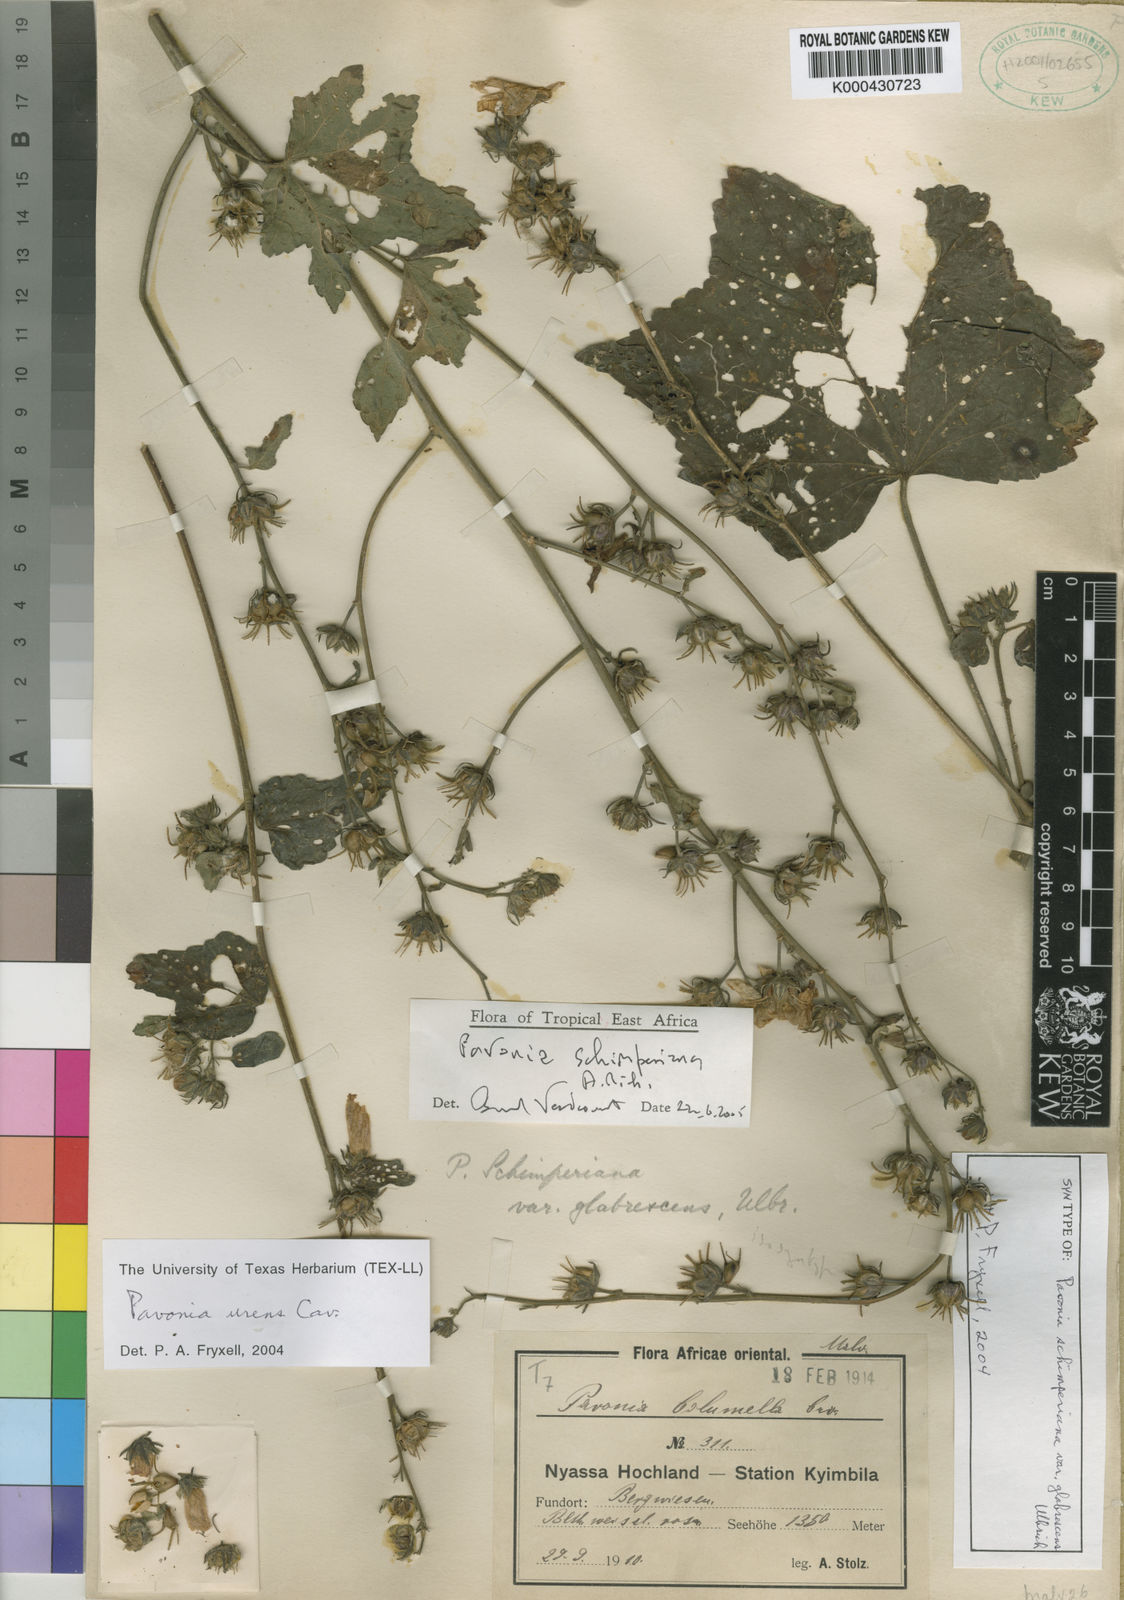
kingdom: Plantae
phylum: Tracheophyta
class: Magnoliopsida
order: Malvales
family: Malvaceae
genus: Pavonia
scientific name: Pavonia schimperiana
